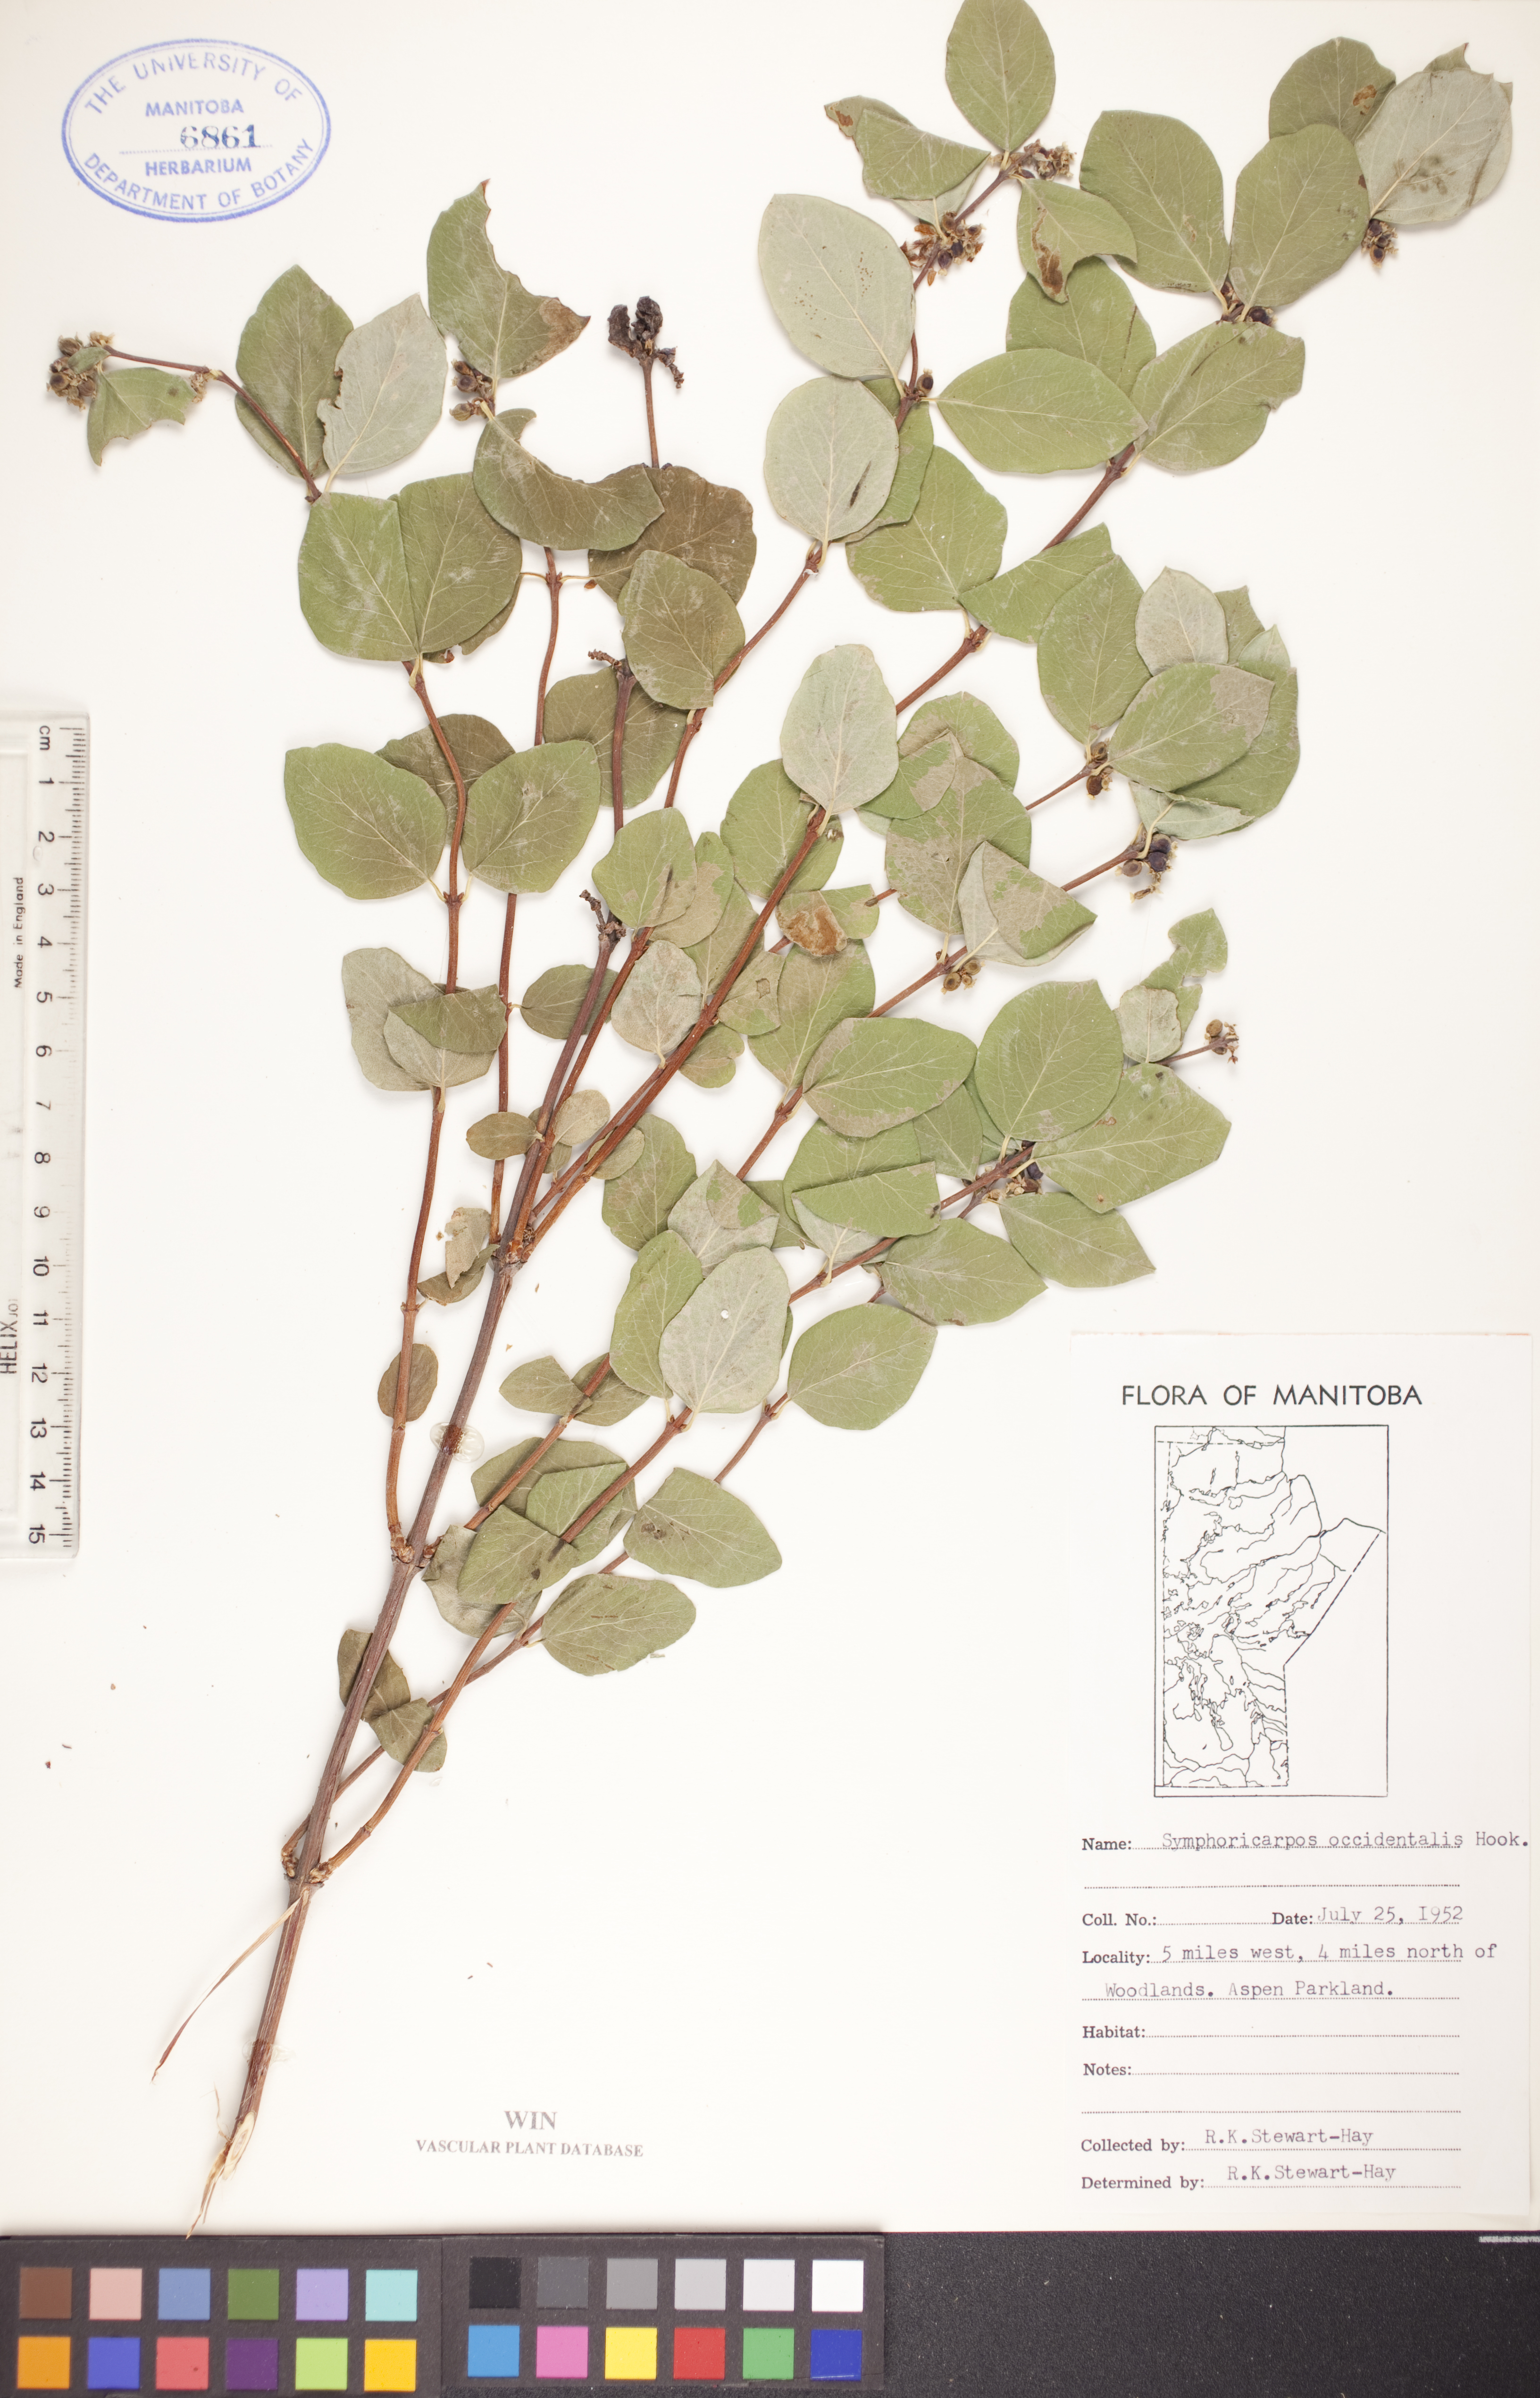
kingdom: Plantae
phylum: Tracheophyta
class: Magnoliopsida
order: Dipsacales
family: Caprifoliaceae
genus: Symphoricarpos
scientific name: Symphoricarpos occidentalis
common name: Wolfberry
